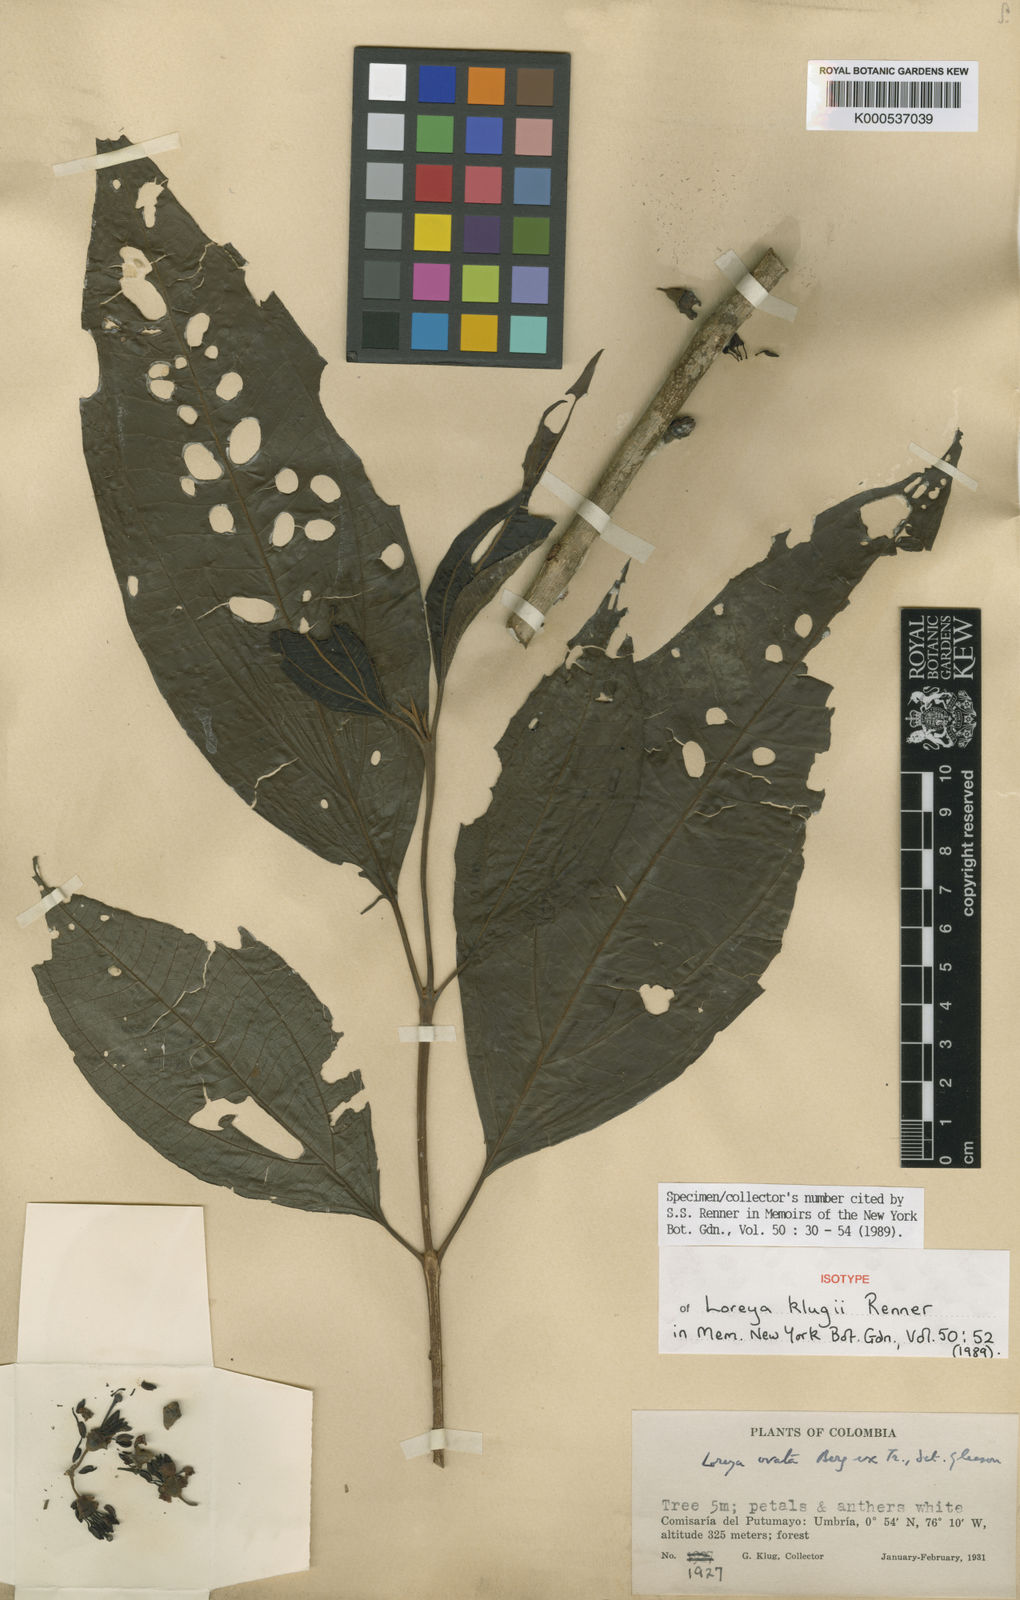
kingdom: Plantae
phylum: Tracheophyta
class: Magnoliopsida
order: Myrtales
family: Melastomataceae
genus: Bellucia
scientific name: Bellucia klugii
